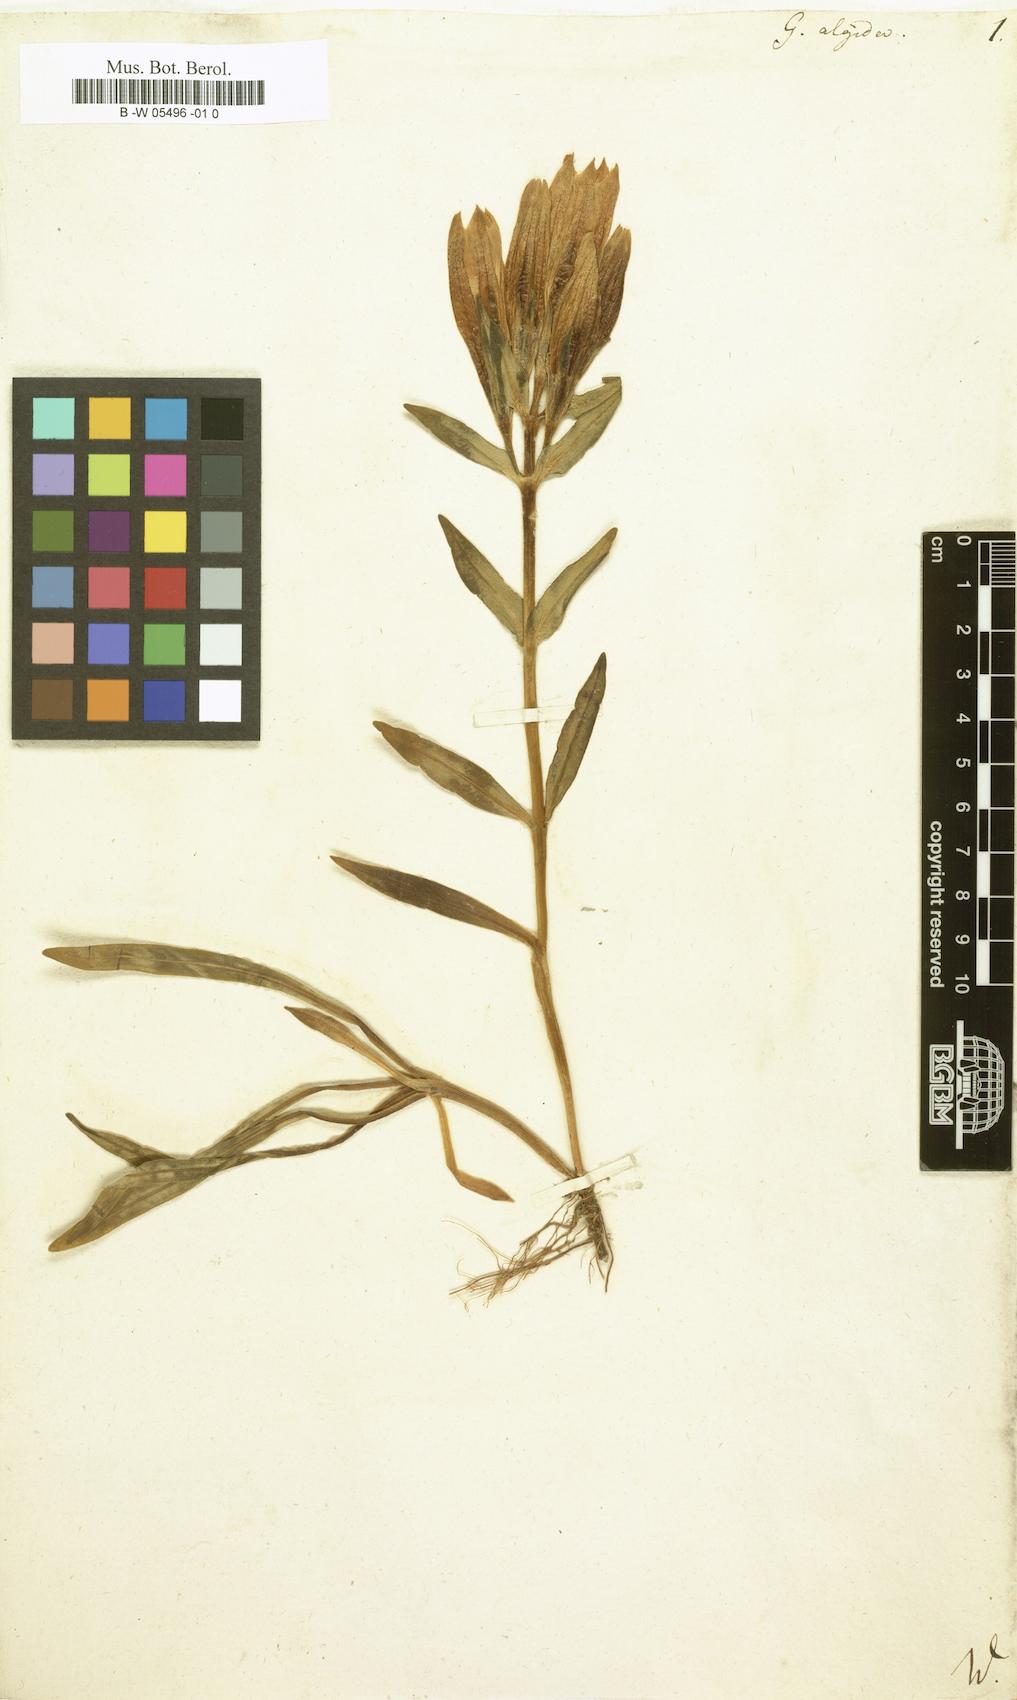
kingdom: Plantae
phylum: Tracheophyta
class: Magnoliopsida
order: Gentianales
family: Gentianaceae
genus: Gentiana
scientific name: Gentiana algida
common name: Arctic gentian
